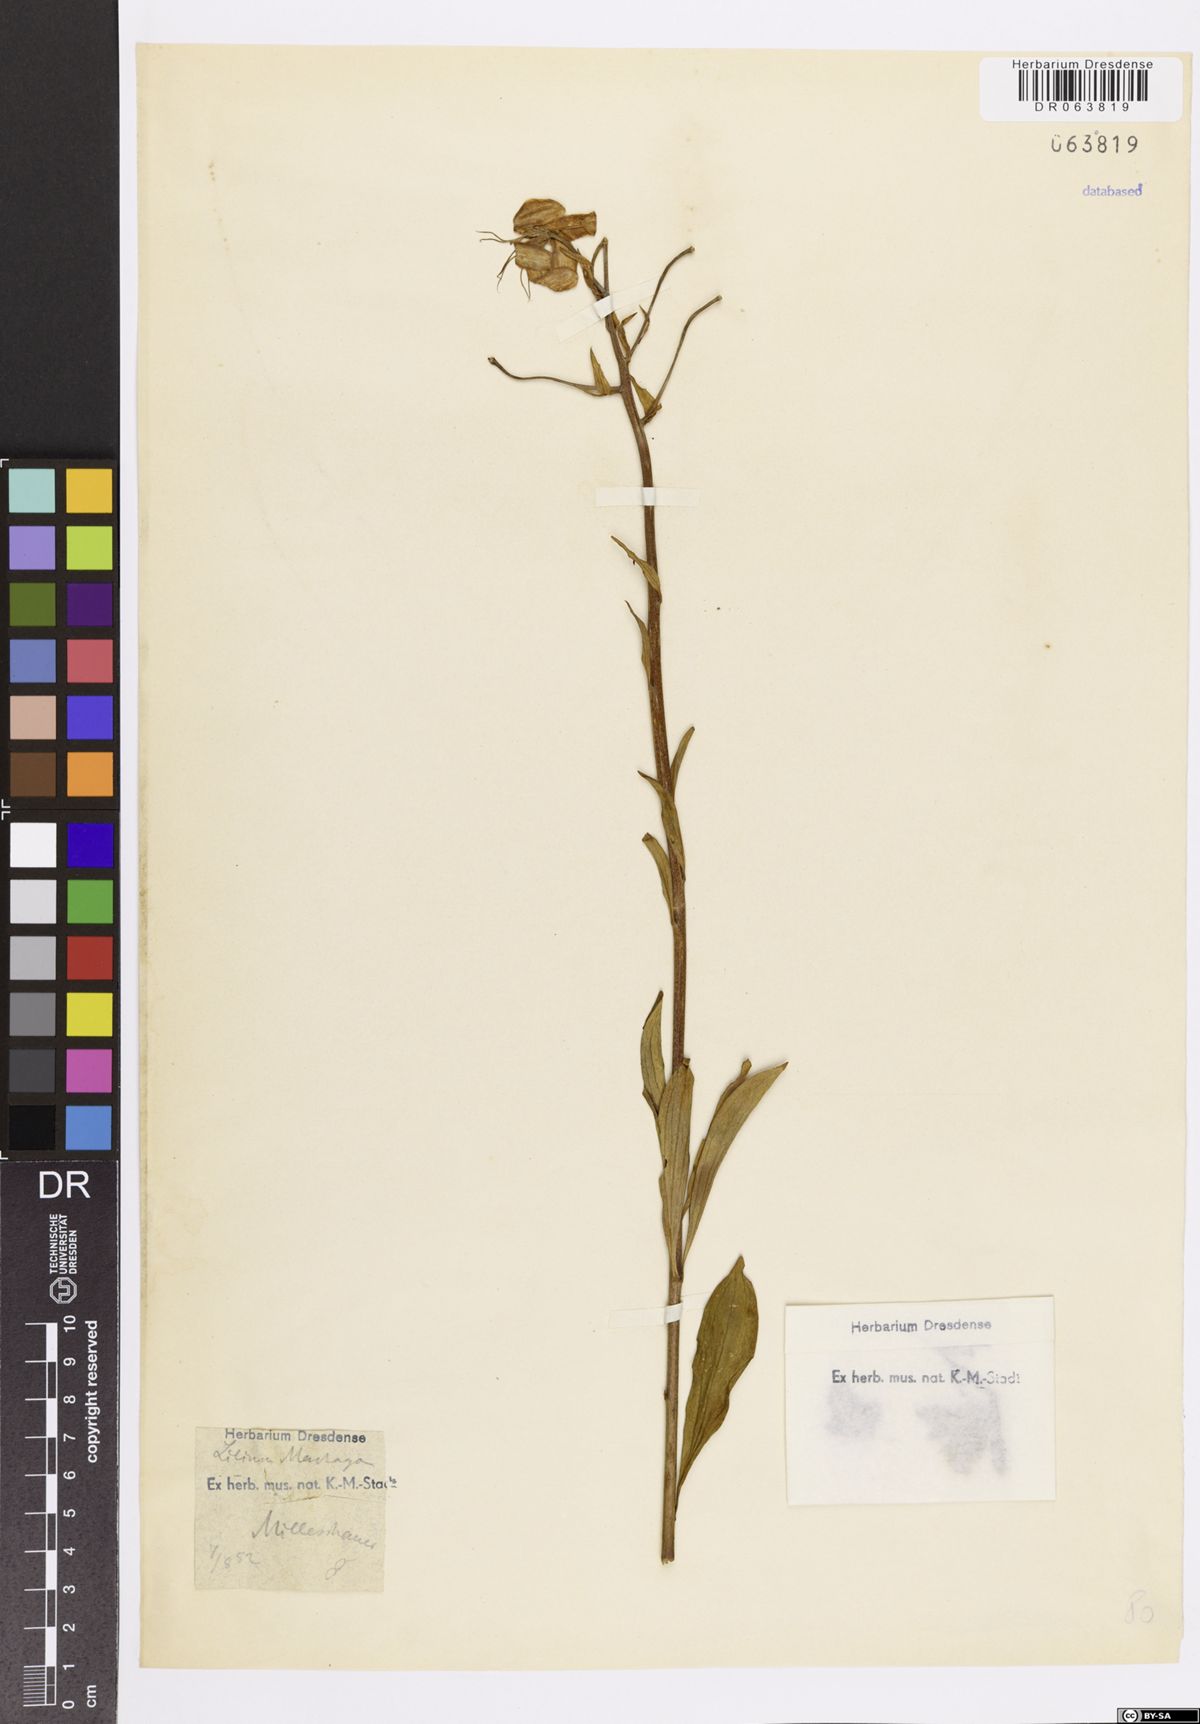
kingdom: Plantae
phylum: Tracheophyta
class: Liliopsida
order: Liliales
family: Liliaceae
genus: Lilium
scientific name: Lilium martagon
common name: Martagon lily
